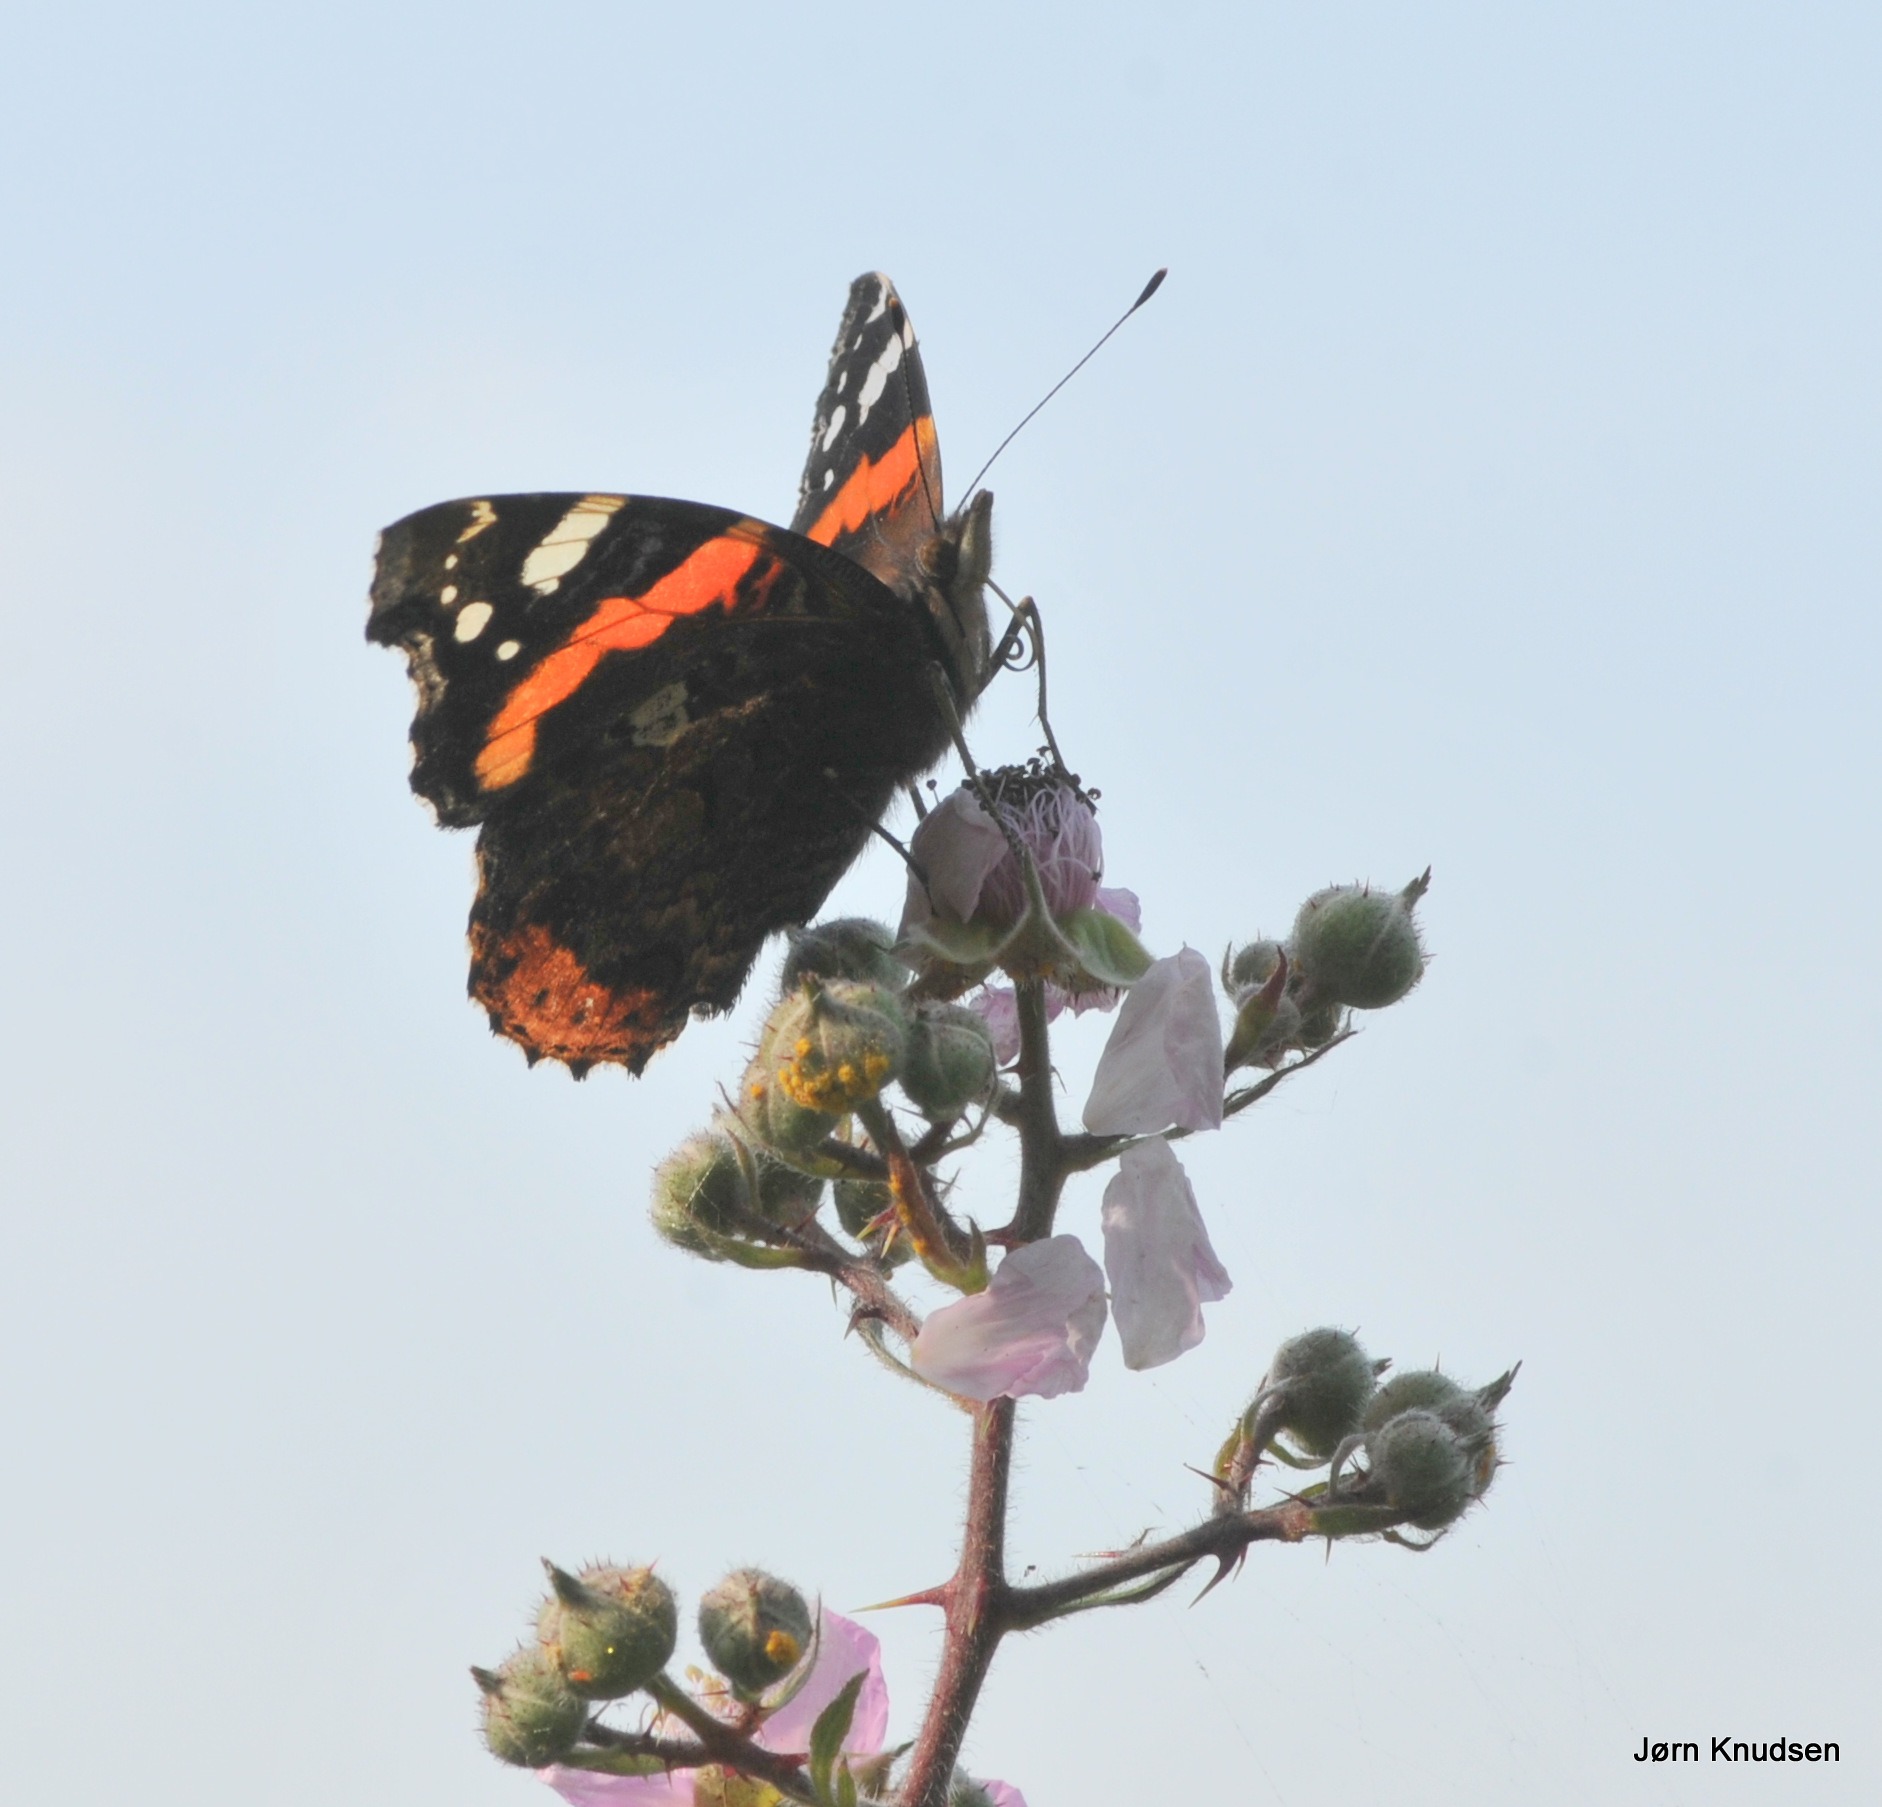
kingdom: Animalia
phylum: Arthropoda
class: Insecta
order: Lepidoptera
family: Nymphalidae
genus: Vanessa
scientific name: Vanessa atalanta
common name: Admiral
